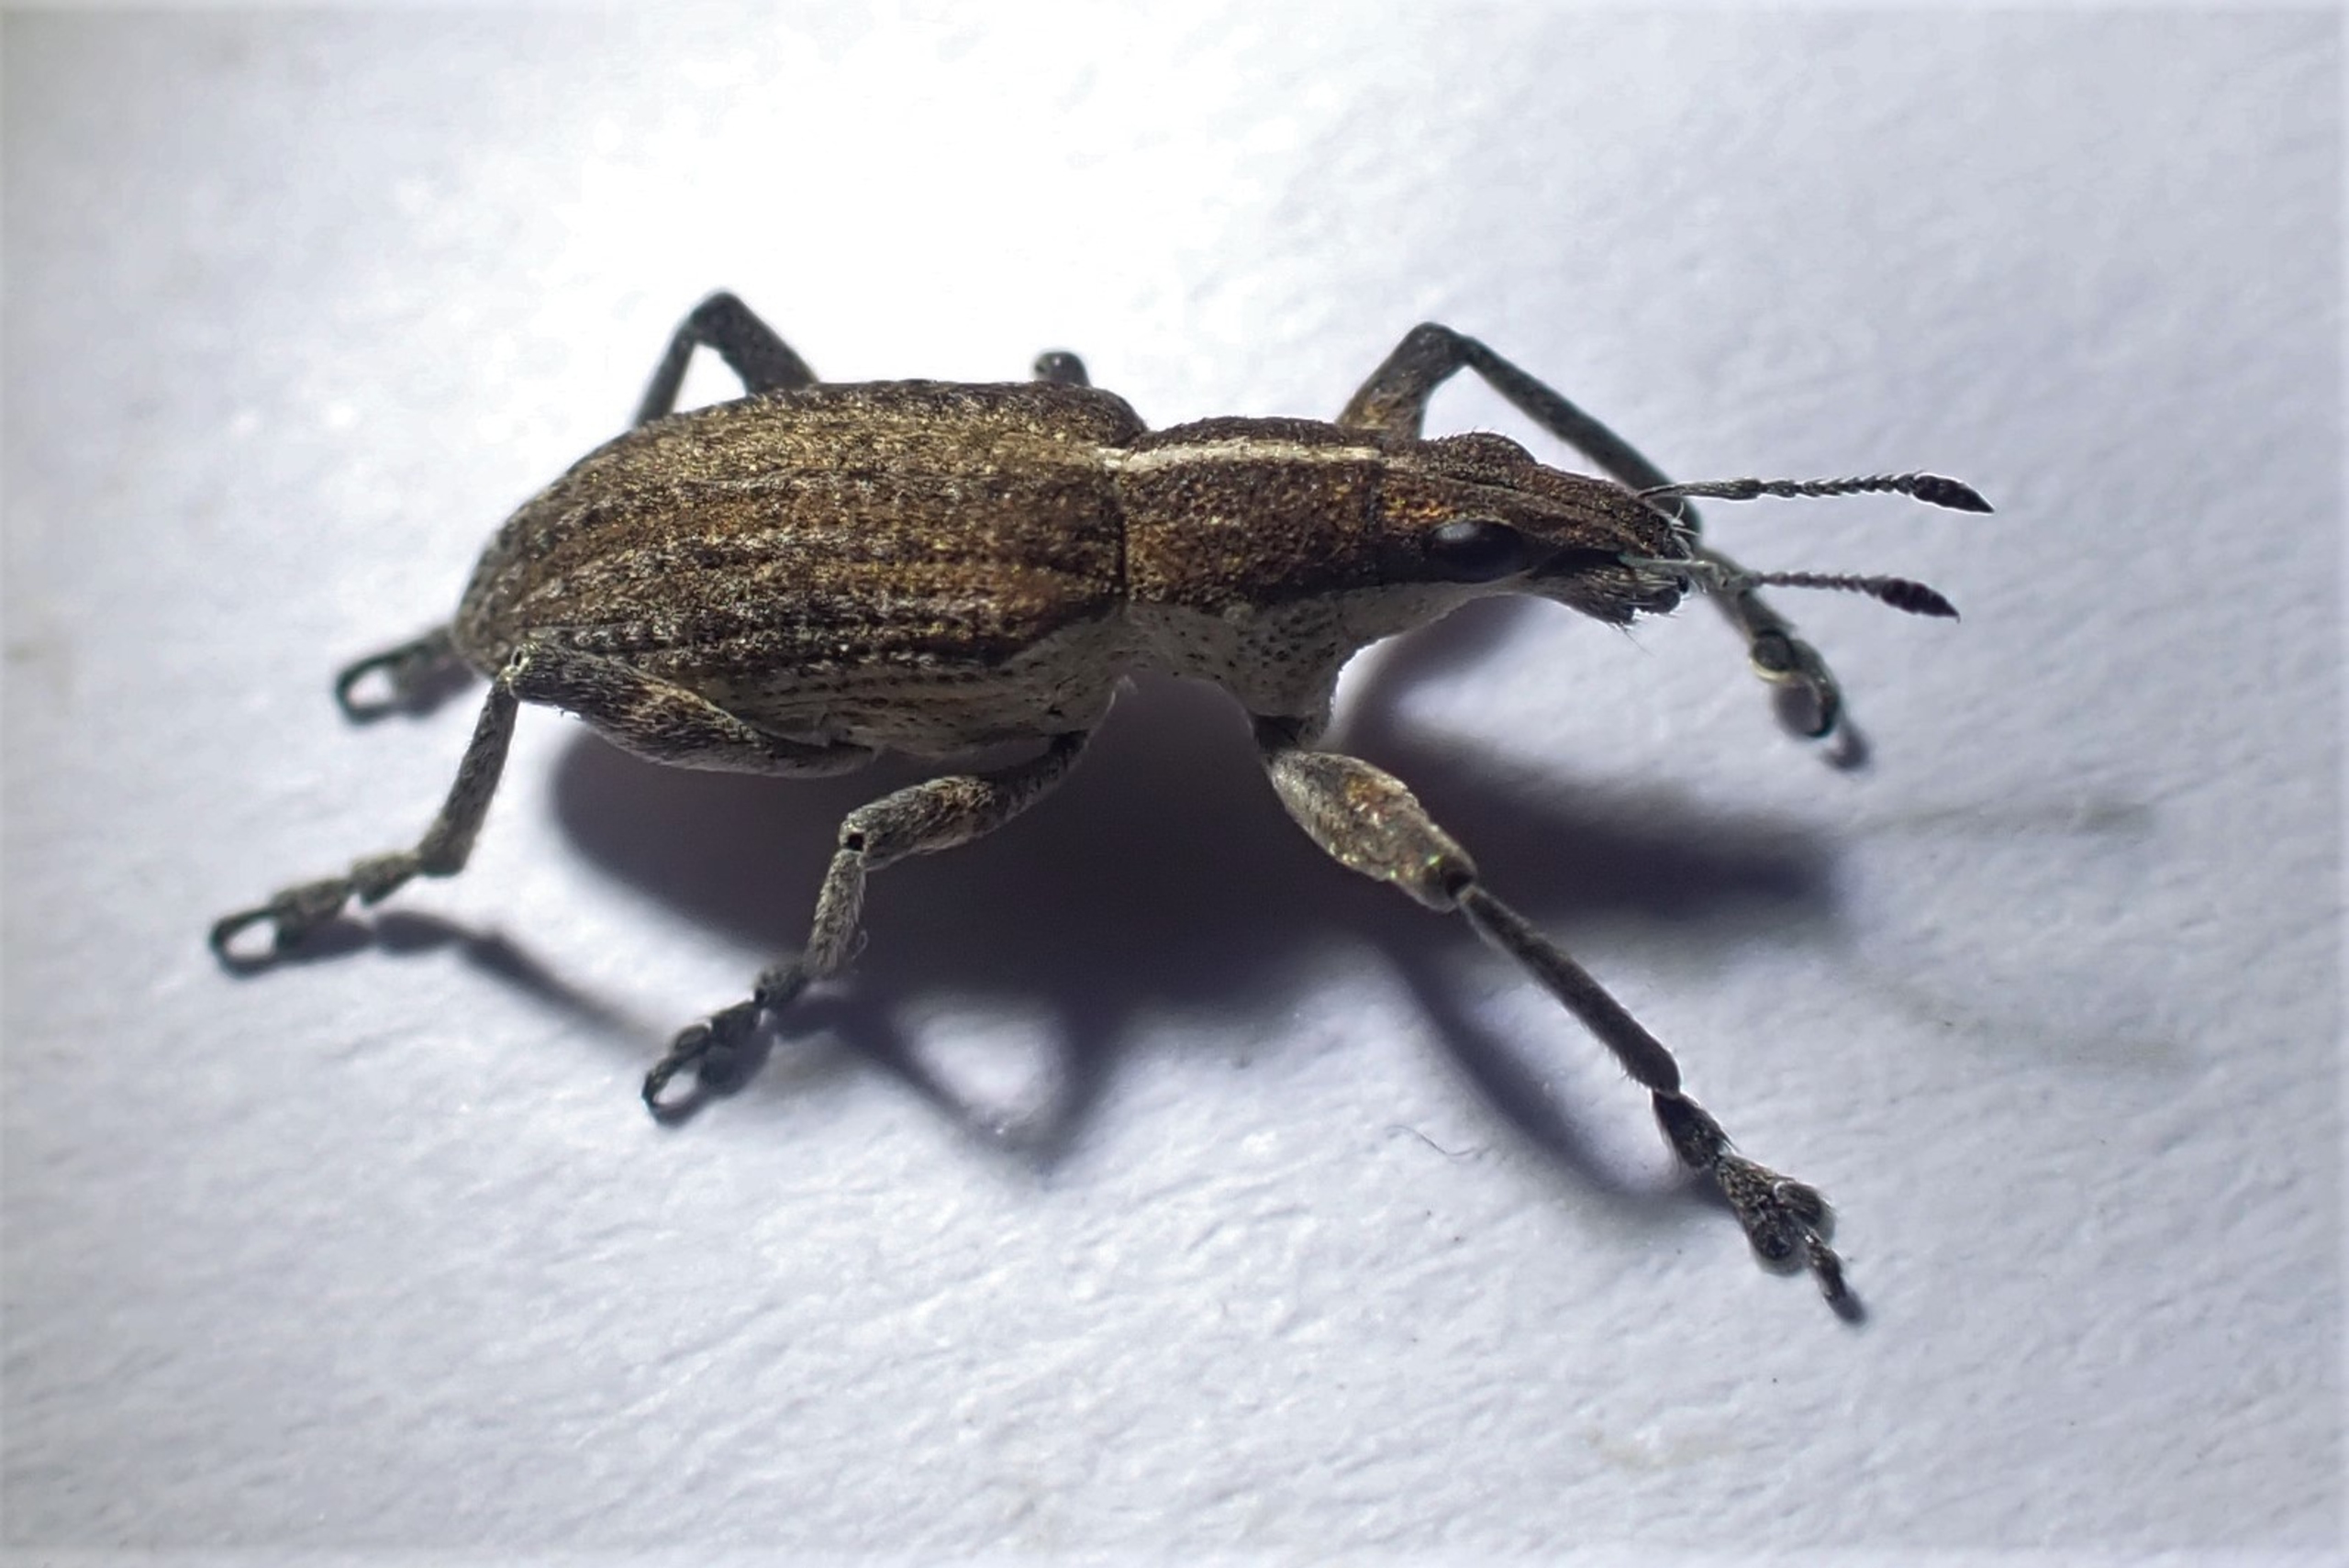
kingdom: Animalia
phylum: Arthropoda
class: Insecta
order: Coleoptera
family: Curculionidae
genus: Charagmus
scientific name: Charagmus gressorius
